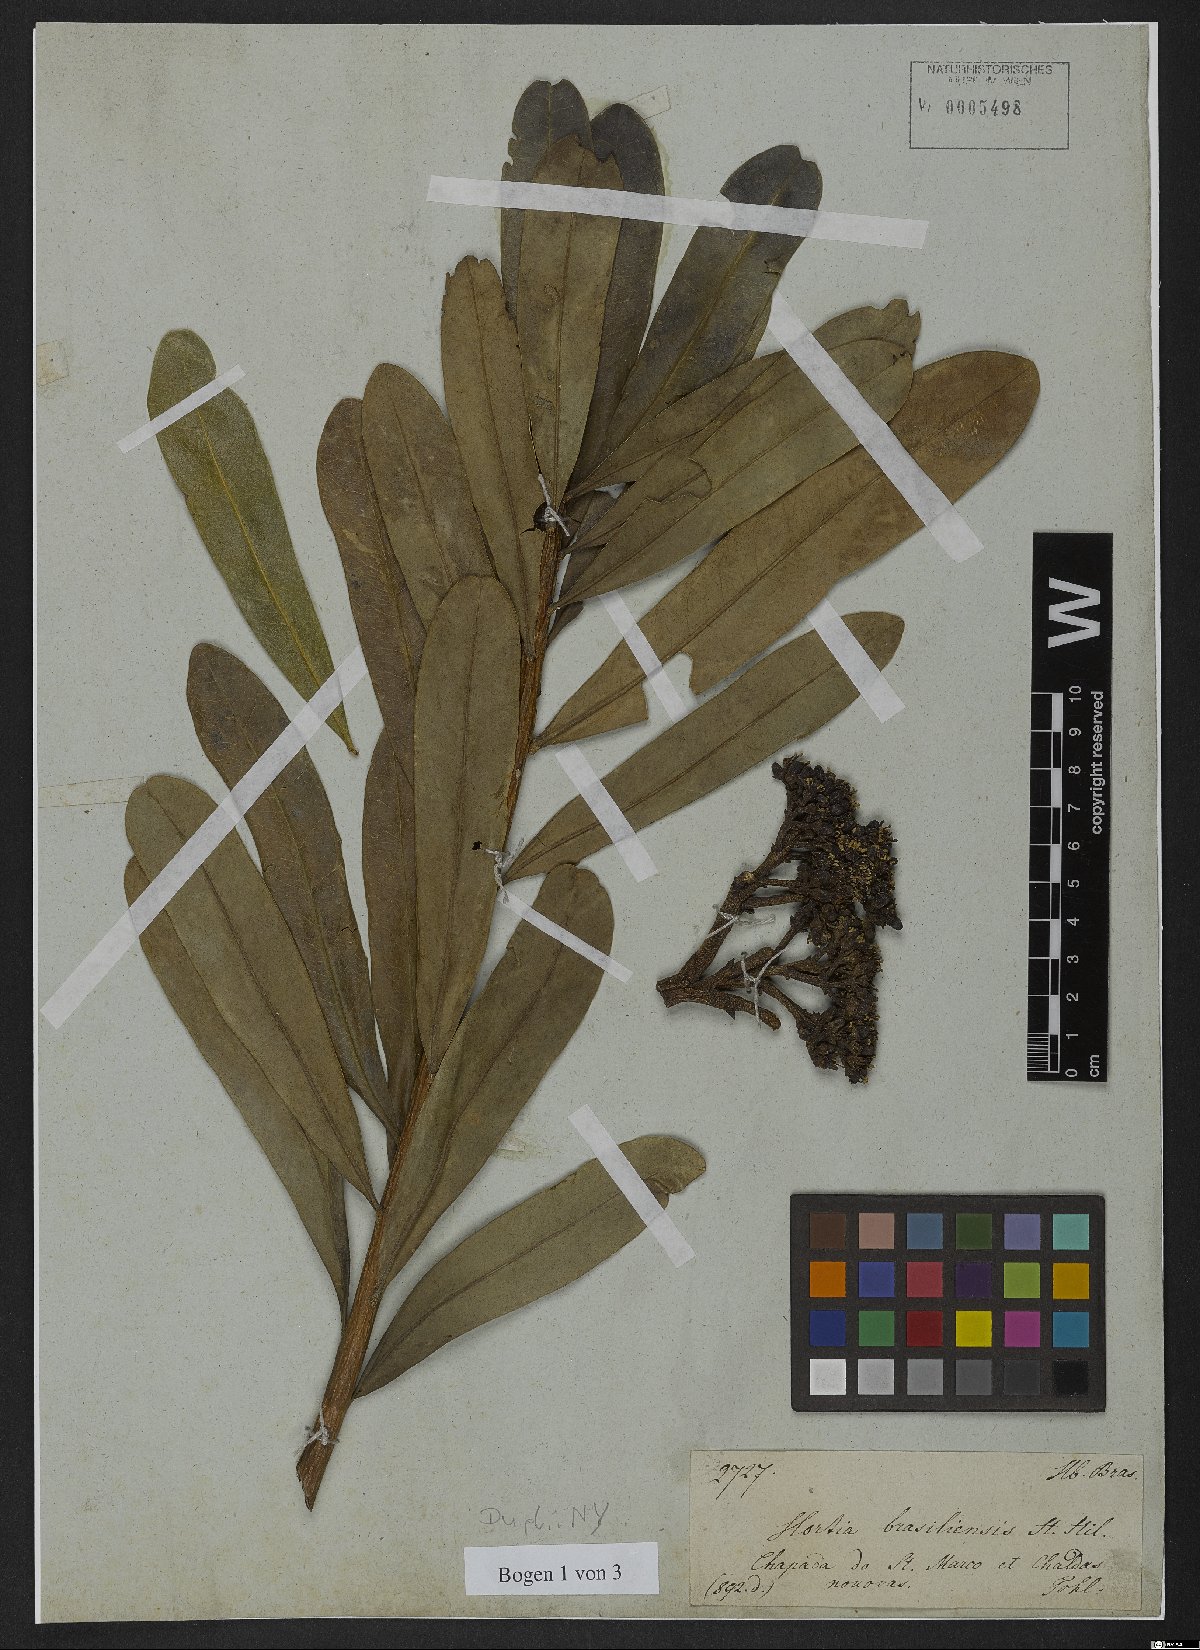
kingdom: Plantae
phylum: Tracheophyta
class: Magnoliopsida
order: Sapindales
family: Rutaceae
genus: Hortia
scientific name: Hortia brasiliana
